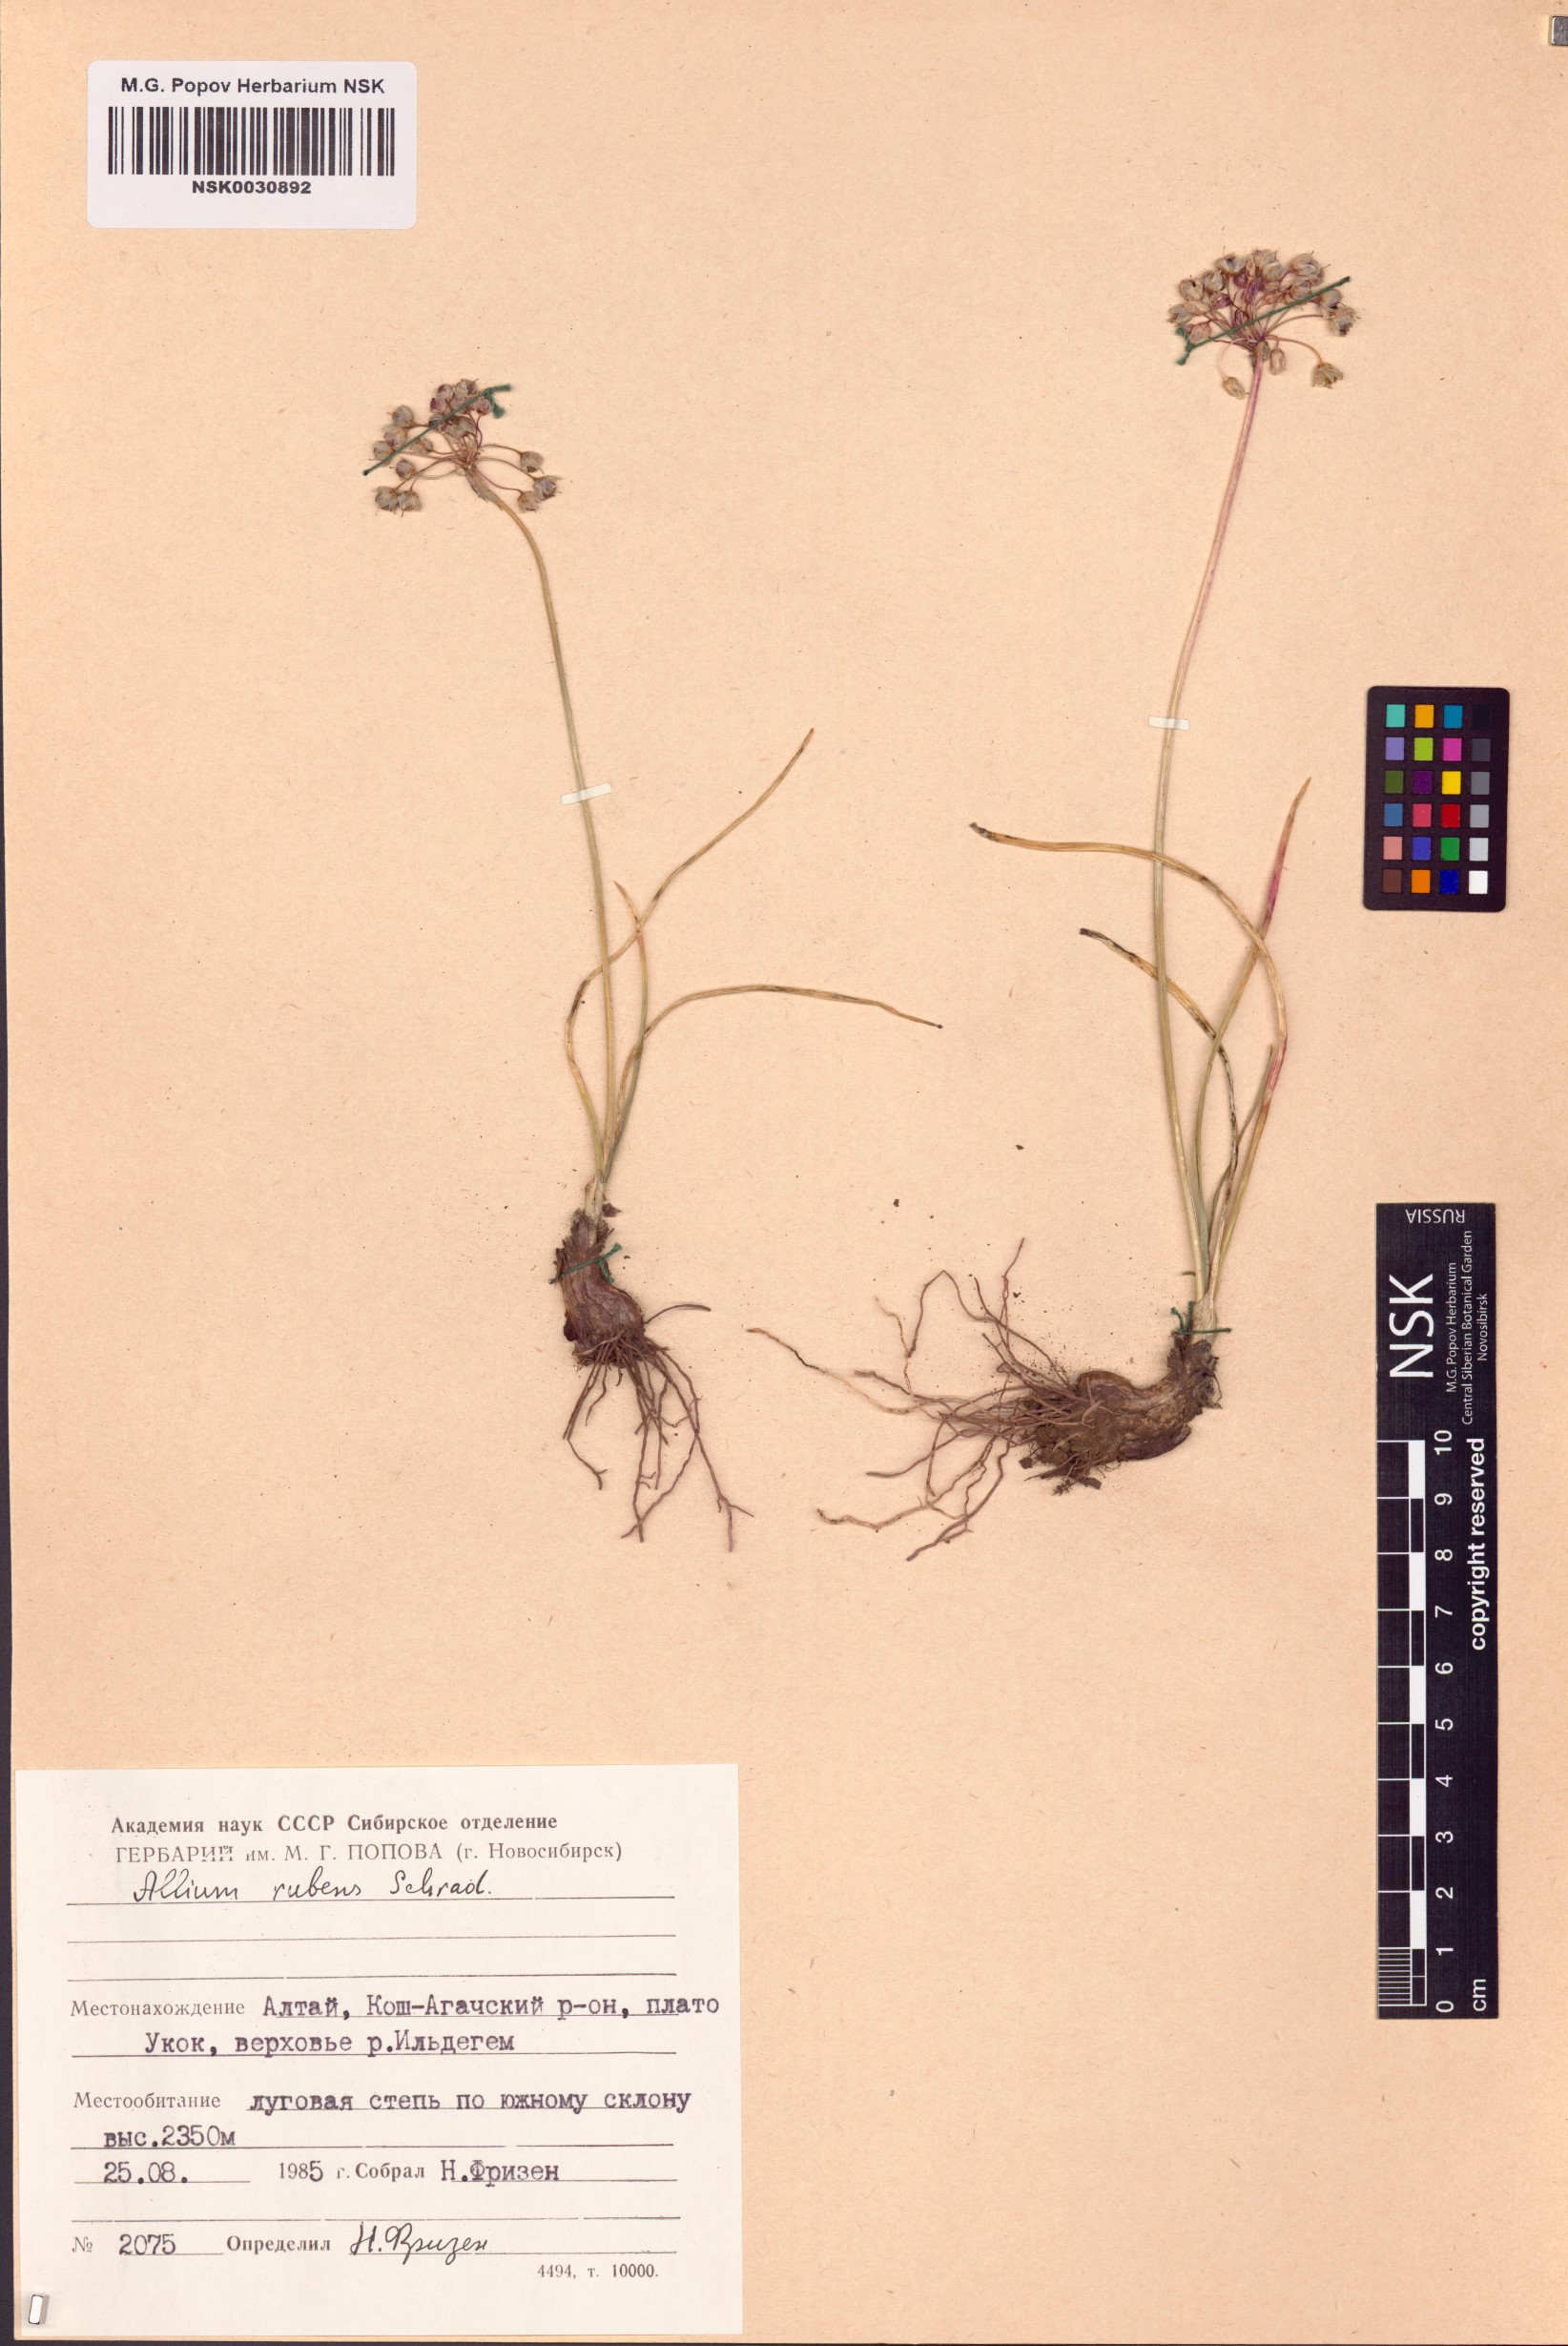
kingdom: Plantae
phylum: Tracheophyta
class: Liliopsida
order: Asparagales
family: Amaryllidaceae
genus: Allium
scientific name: Allium rubens
